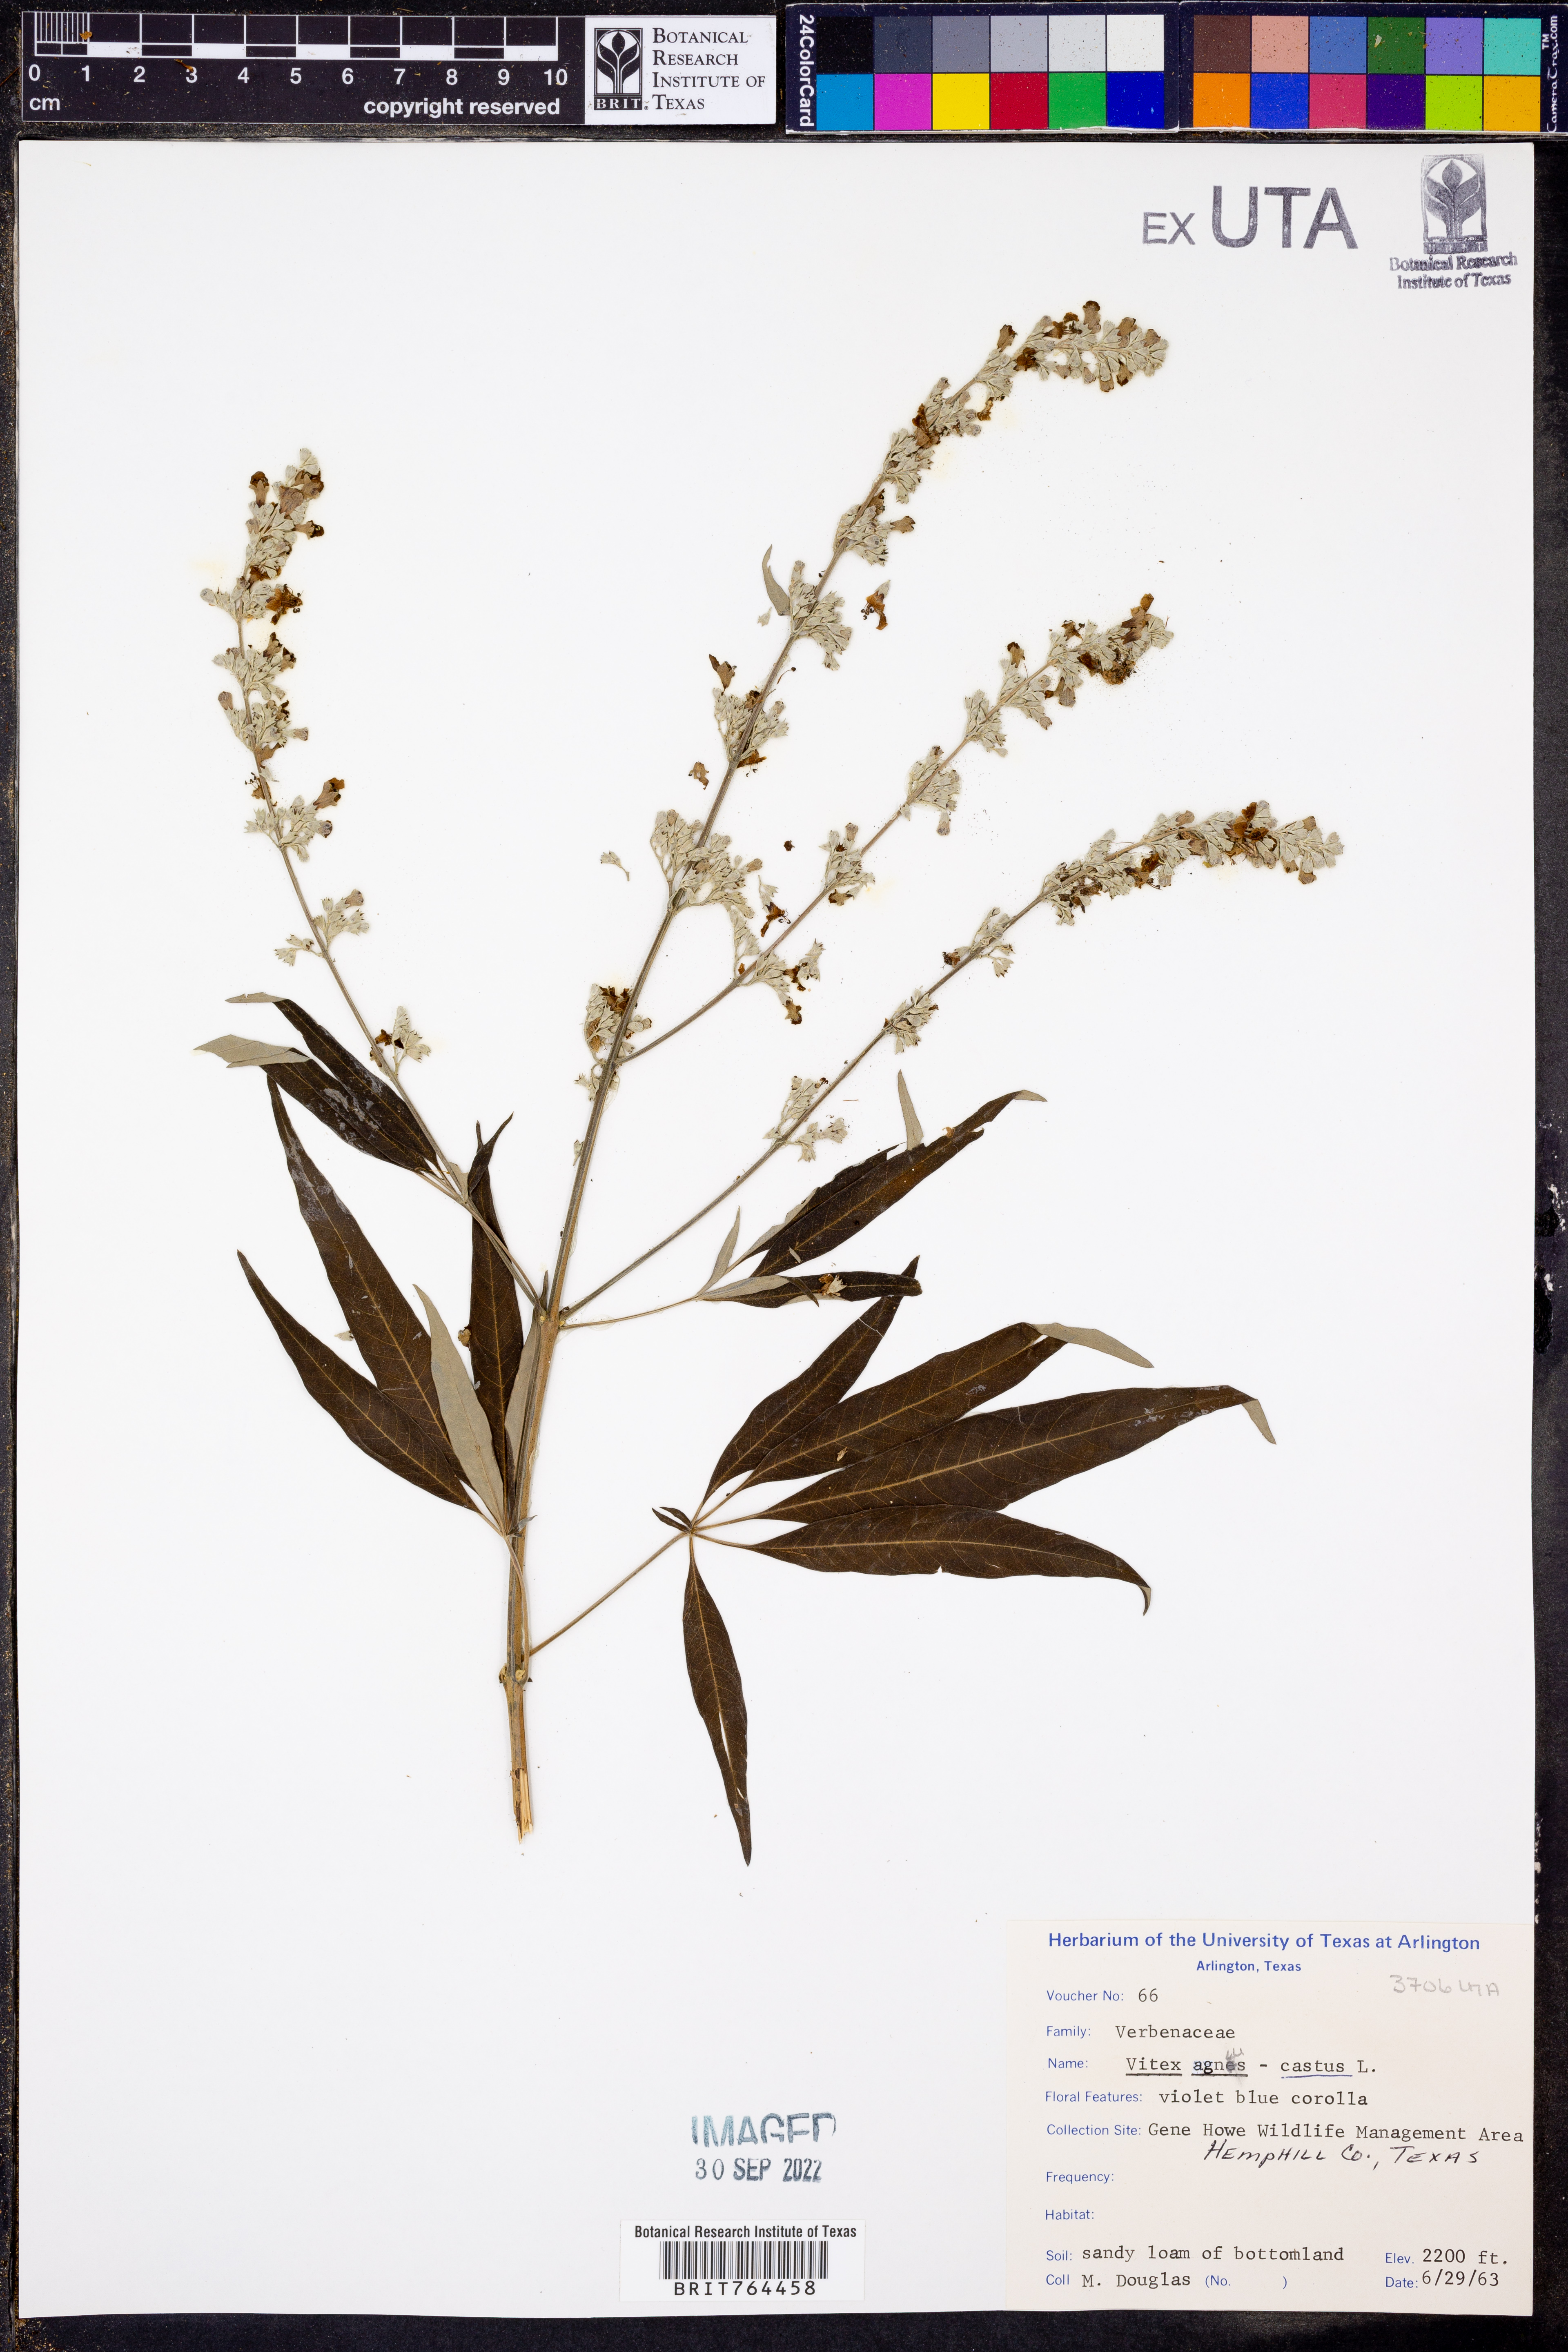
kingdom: Plantae
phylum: Tracheophyta
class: Magnoliopsida
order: Lamiales
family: Lamiaceae
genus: Vitex
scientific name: Vitex agnus-castus
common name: Chasteberry
